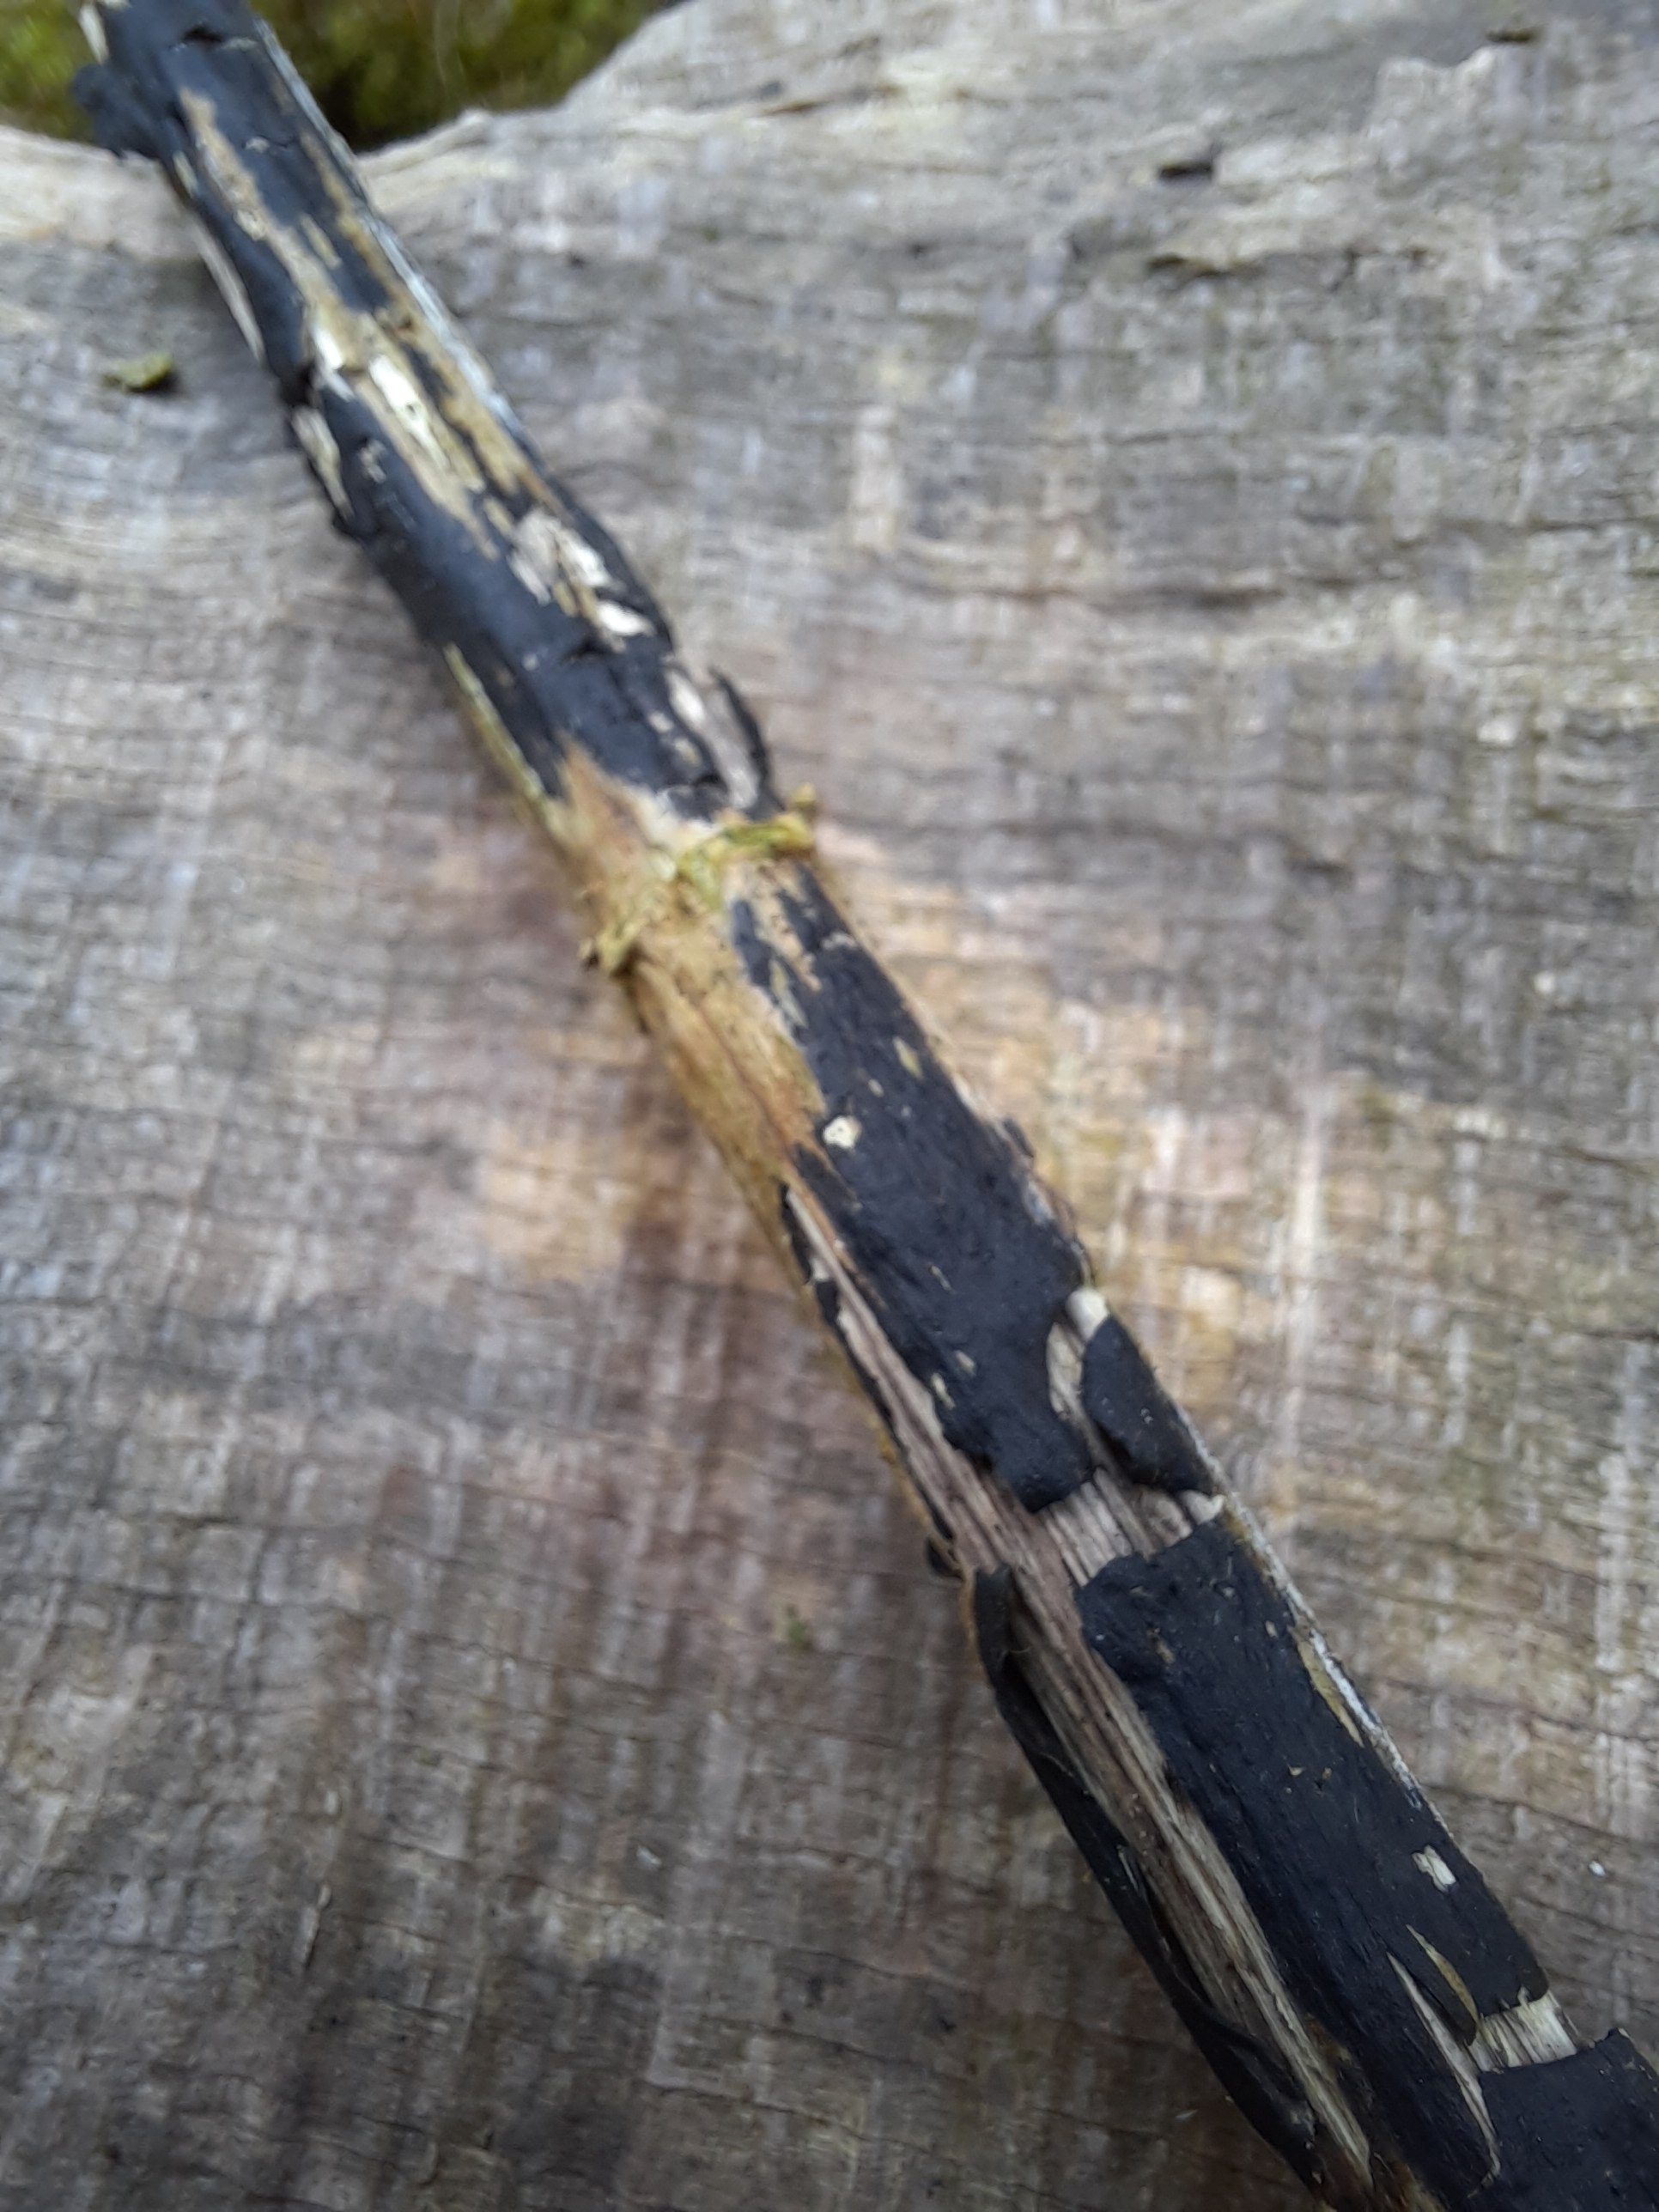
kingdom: Fungi
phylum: Ascomycota
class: Sordariomycetes
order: Diaporthales
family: Diaporthaceae
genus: Diaporthopsis
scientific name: Diaporthopsis urticae
